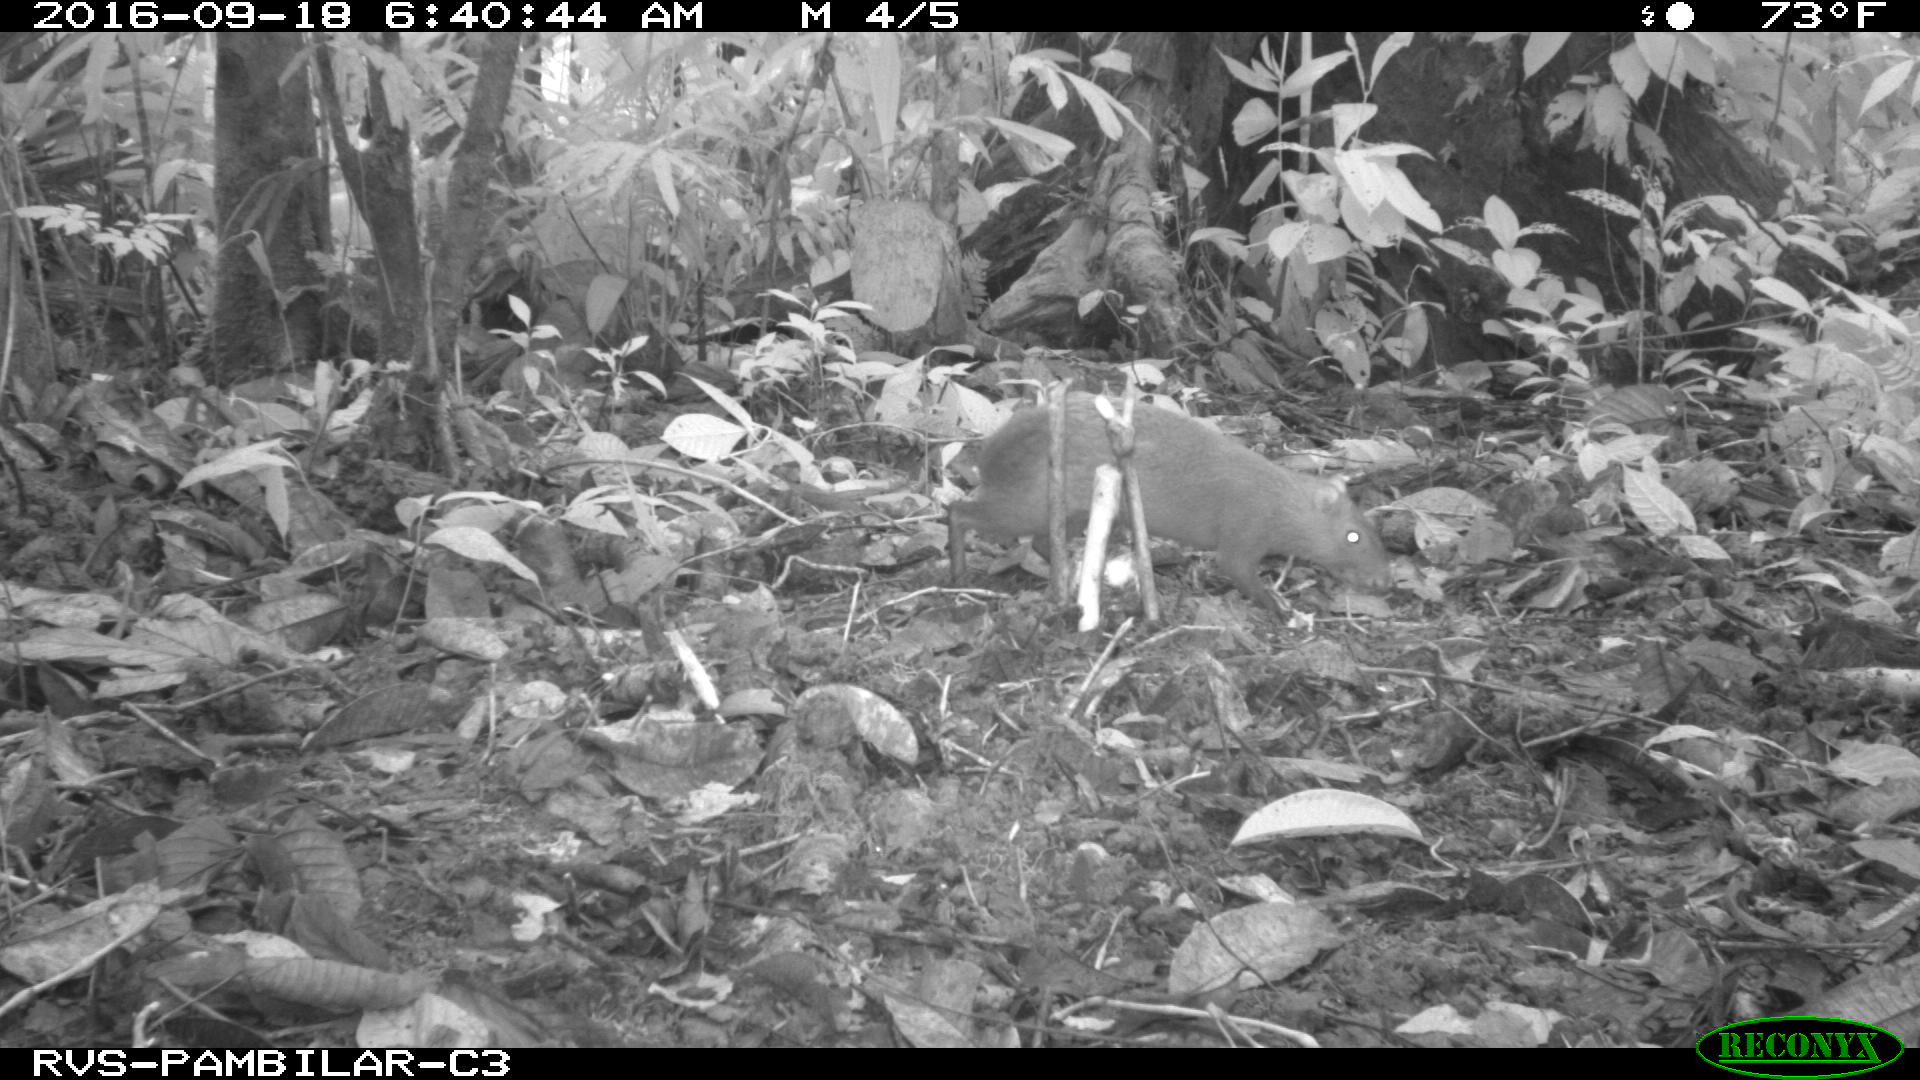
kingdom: Animalia
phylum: Chordata
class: Mammalia
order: Rodentia
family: Dasyproctidae
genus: Dasyprocta
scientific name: Dasyprocta punctata
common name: Central american agouti
